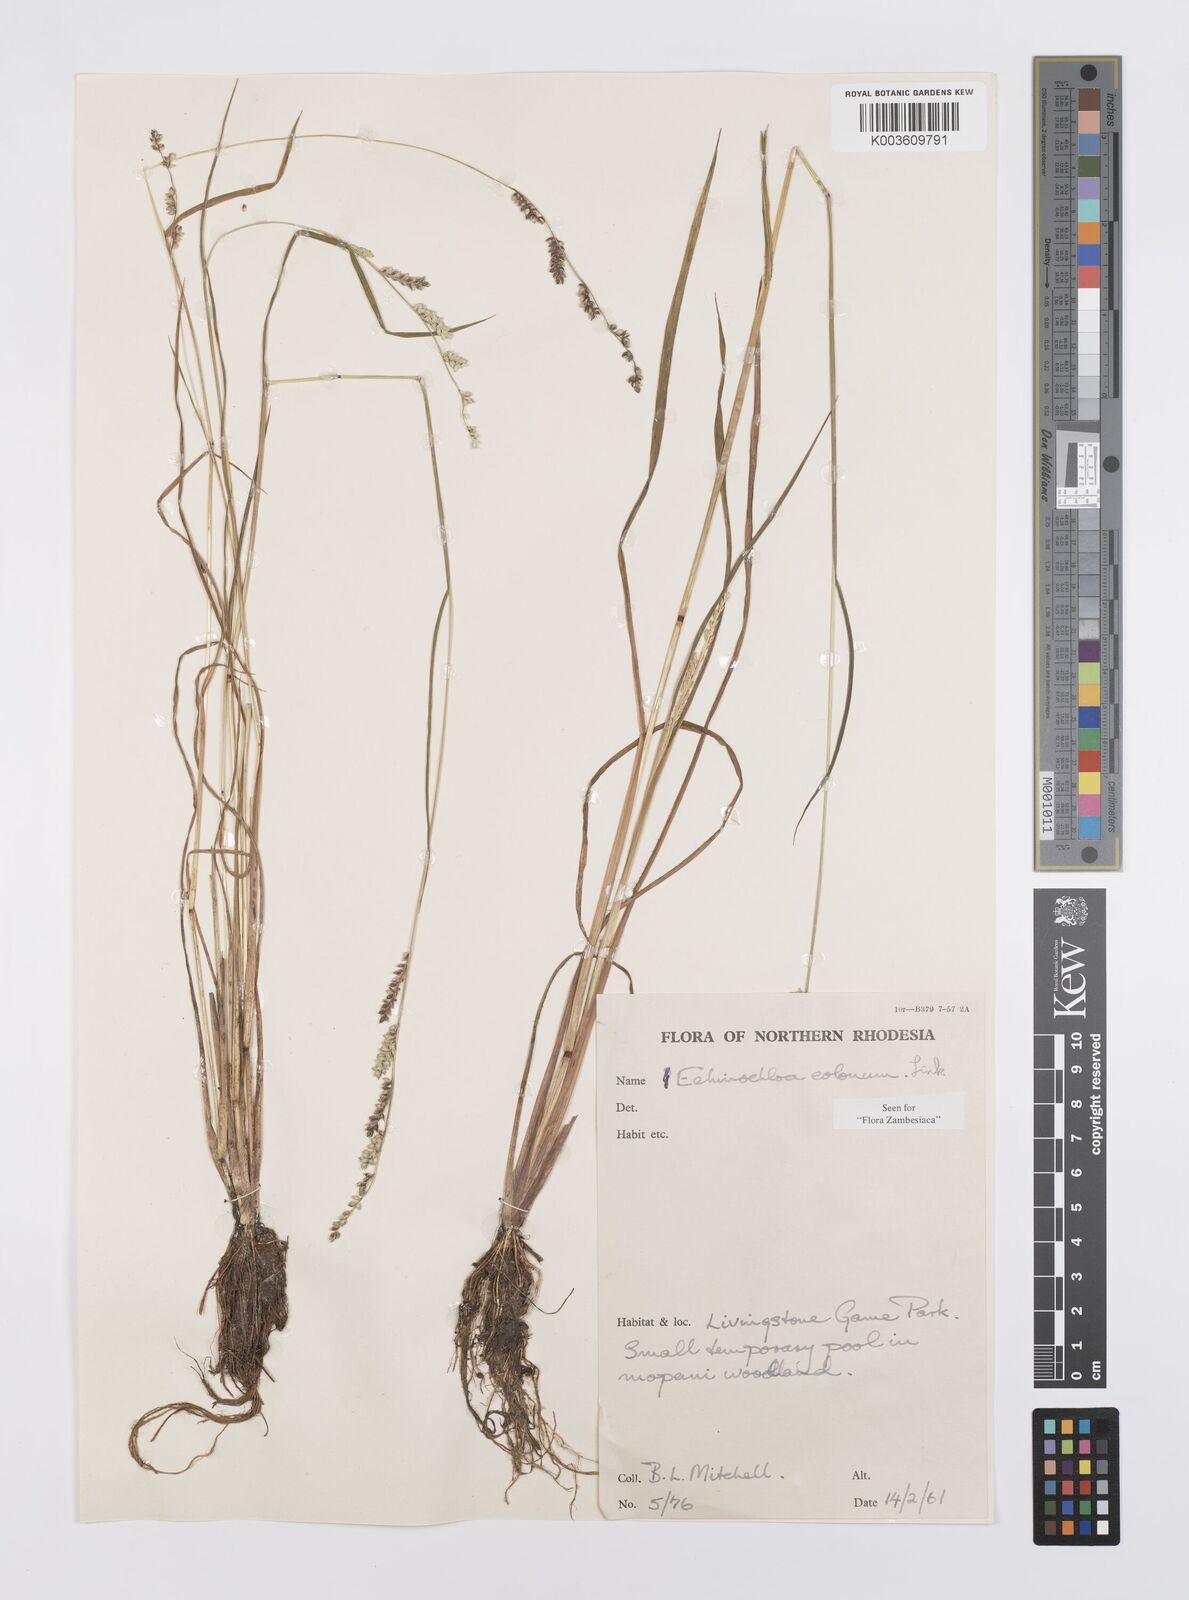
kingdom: Plantae
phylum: Tracheophyta
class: Liliopsida
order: Poales
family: Poaceae
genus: Echinochloa
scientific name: Echinochloa colonum
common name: Jungle rice
